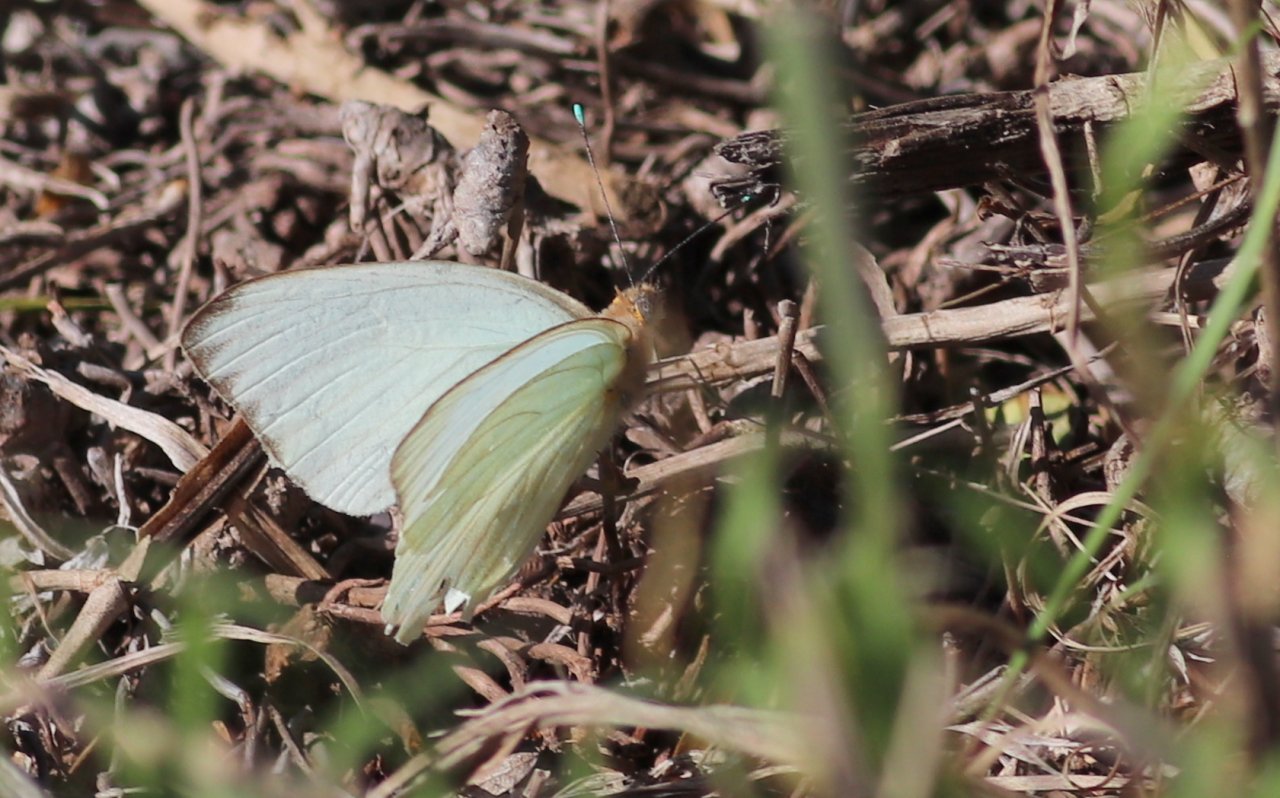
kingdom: Animalia
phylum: Arthropoda
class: Insecta
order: Lepidoptera
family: Pieridae
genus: Ascia
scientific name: Ascia monuste
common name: Great Southern White
